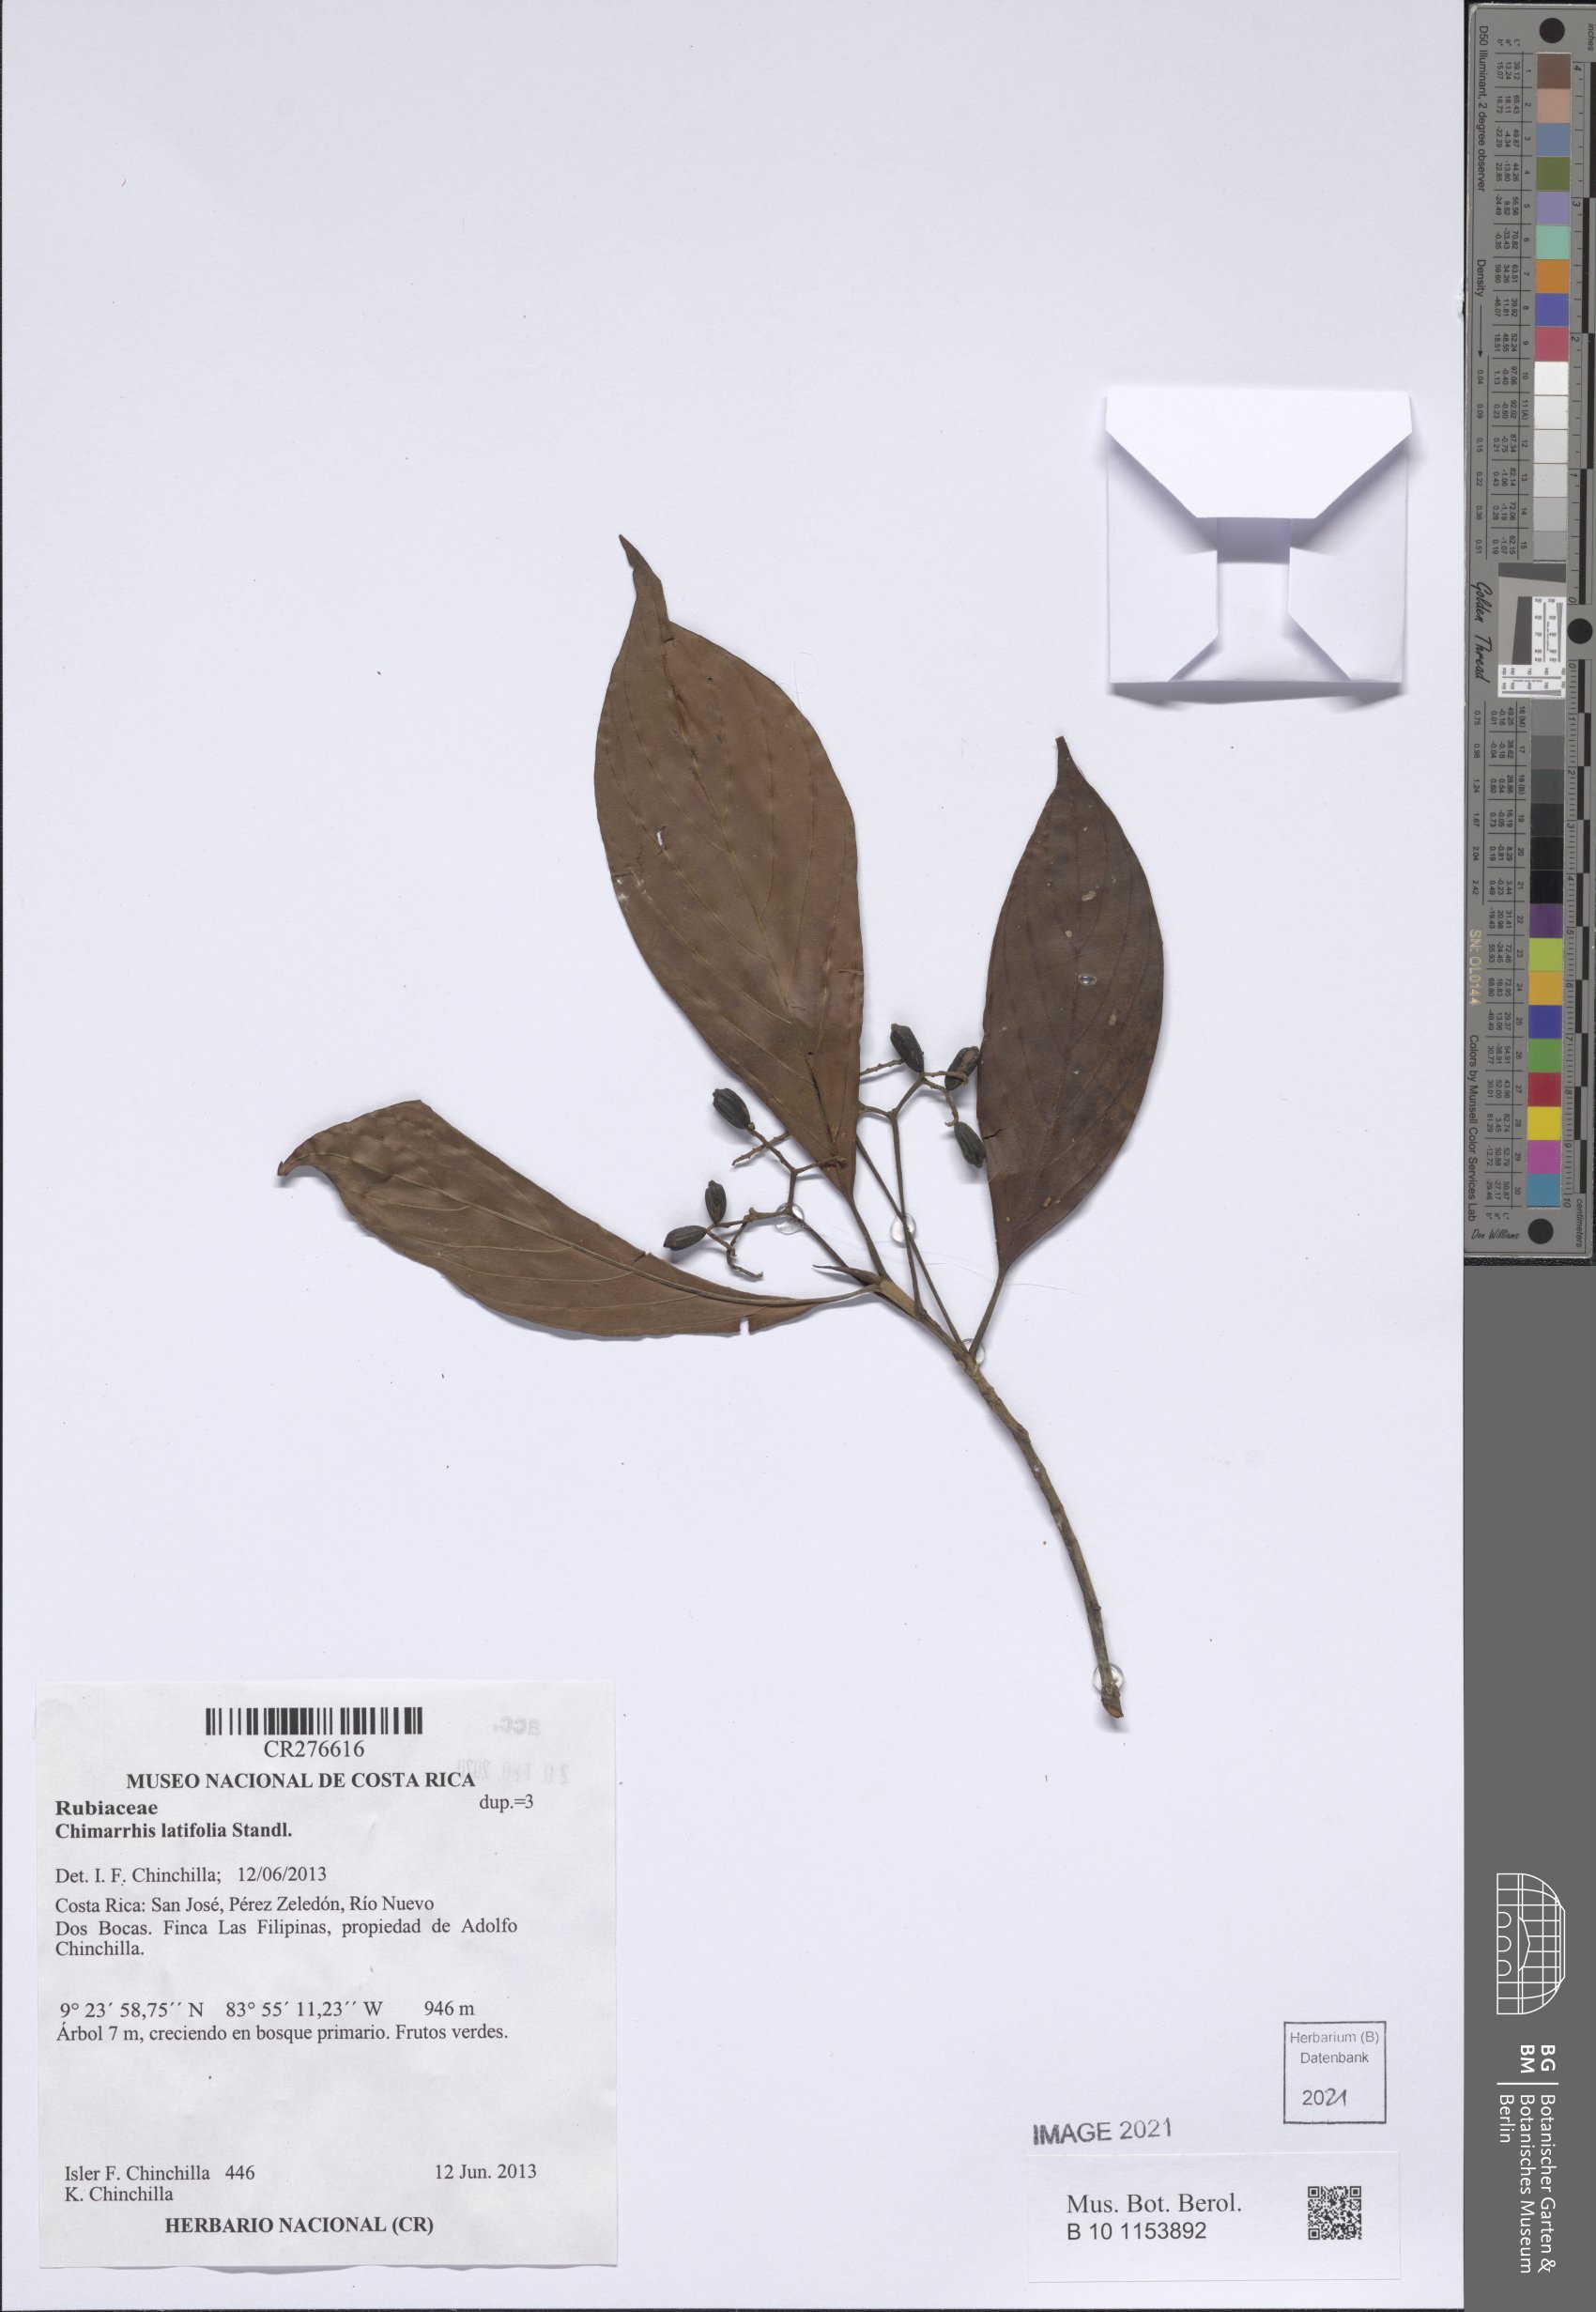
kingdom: Plantae
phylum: Tracheophyta
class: Magnoliopsida
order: Gentianales
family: Rubiaceae
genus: Chimarrhis
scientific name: Chimarrhis latifolia
